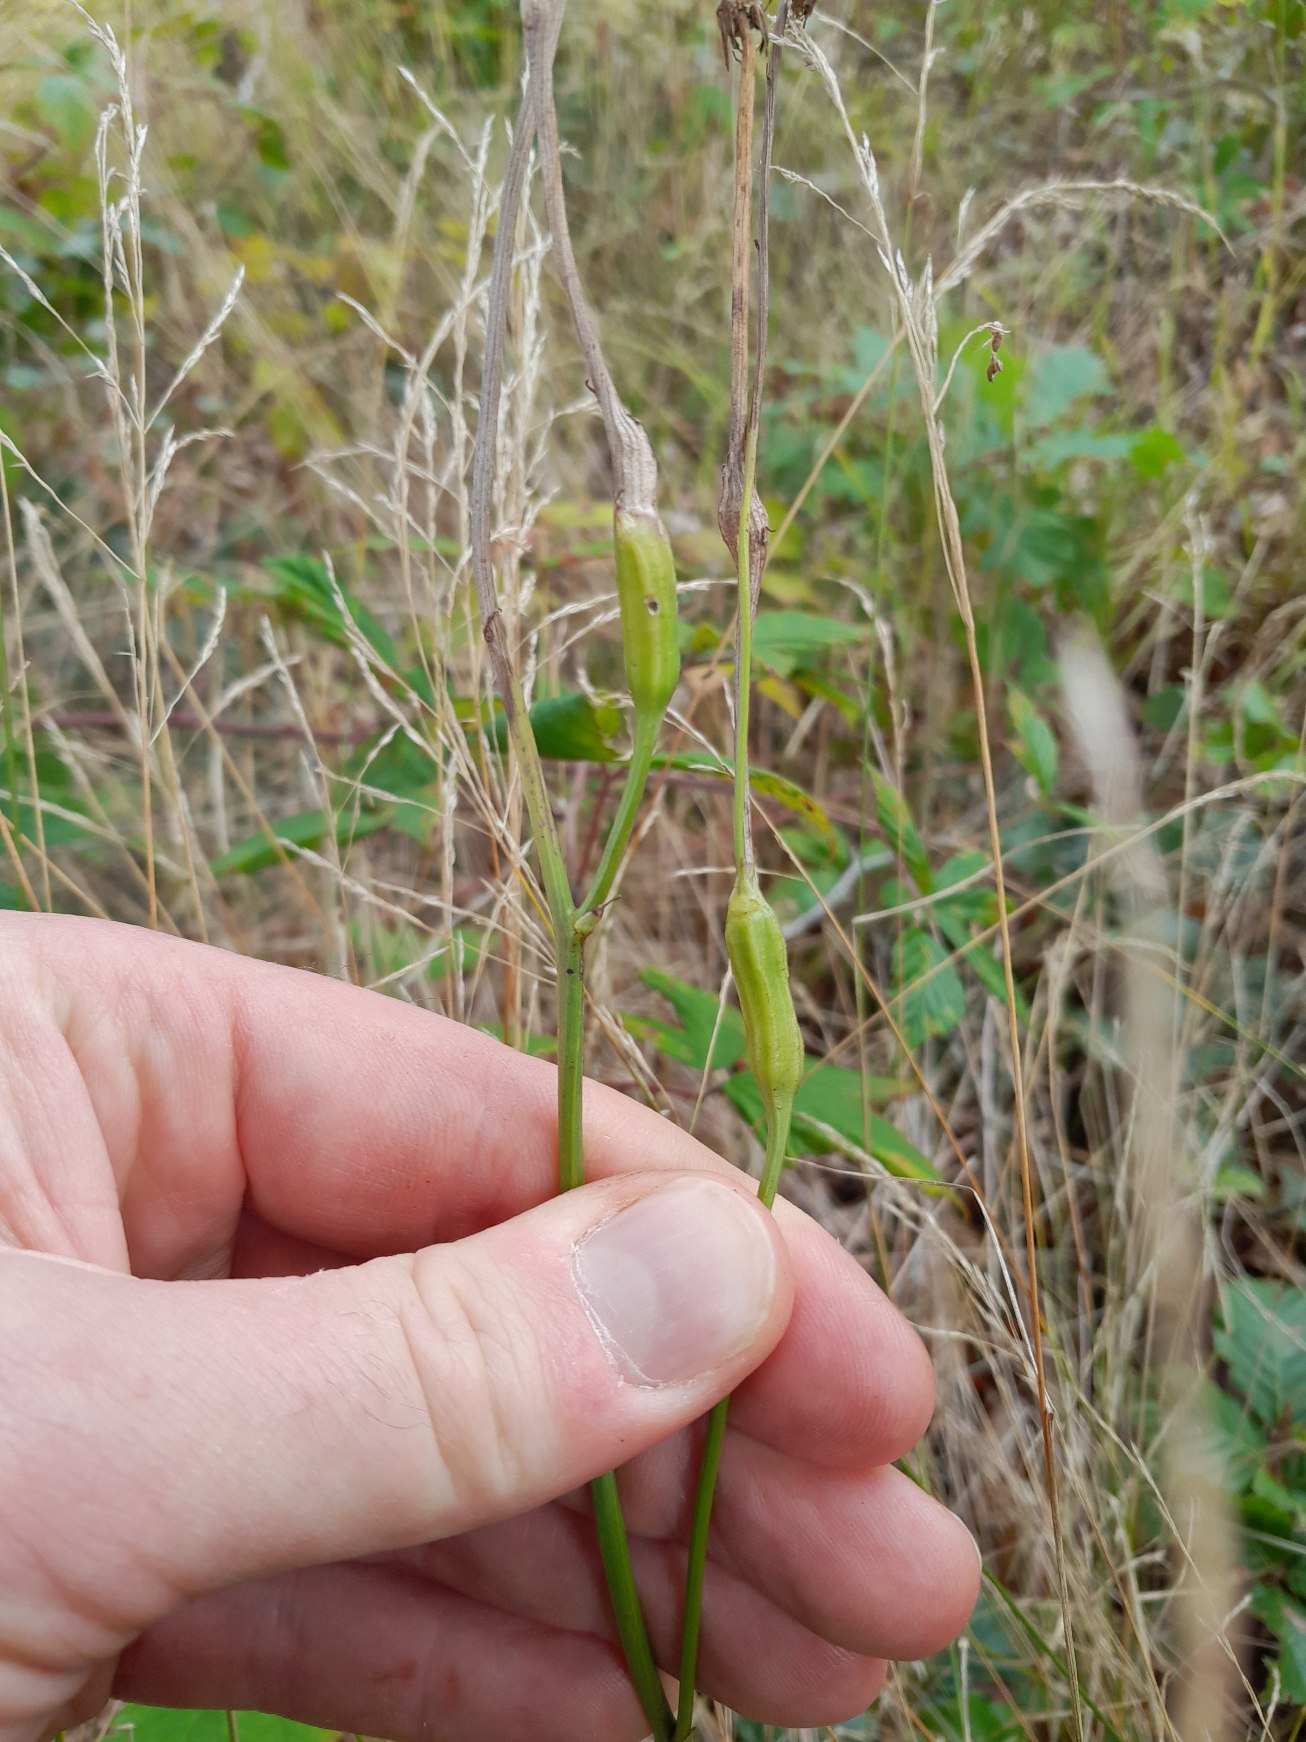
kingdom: Animalia
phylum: Arthropoda
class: Insecta
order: Hymenoptera
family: Cynipidae
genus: Phanacis
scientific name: Phanacis hypochoeridis
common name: Kongepengalhveps
